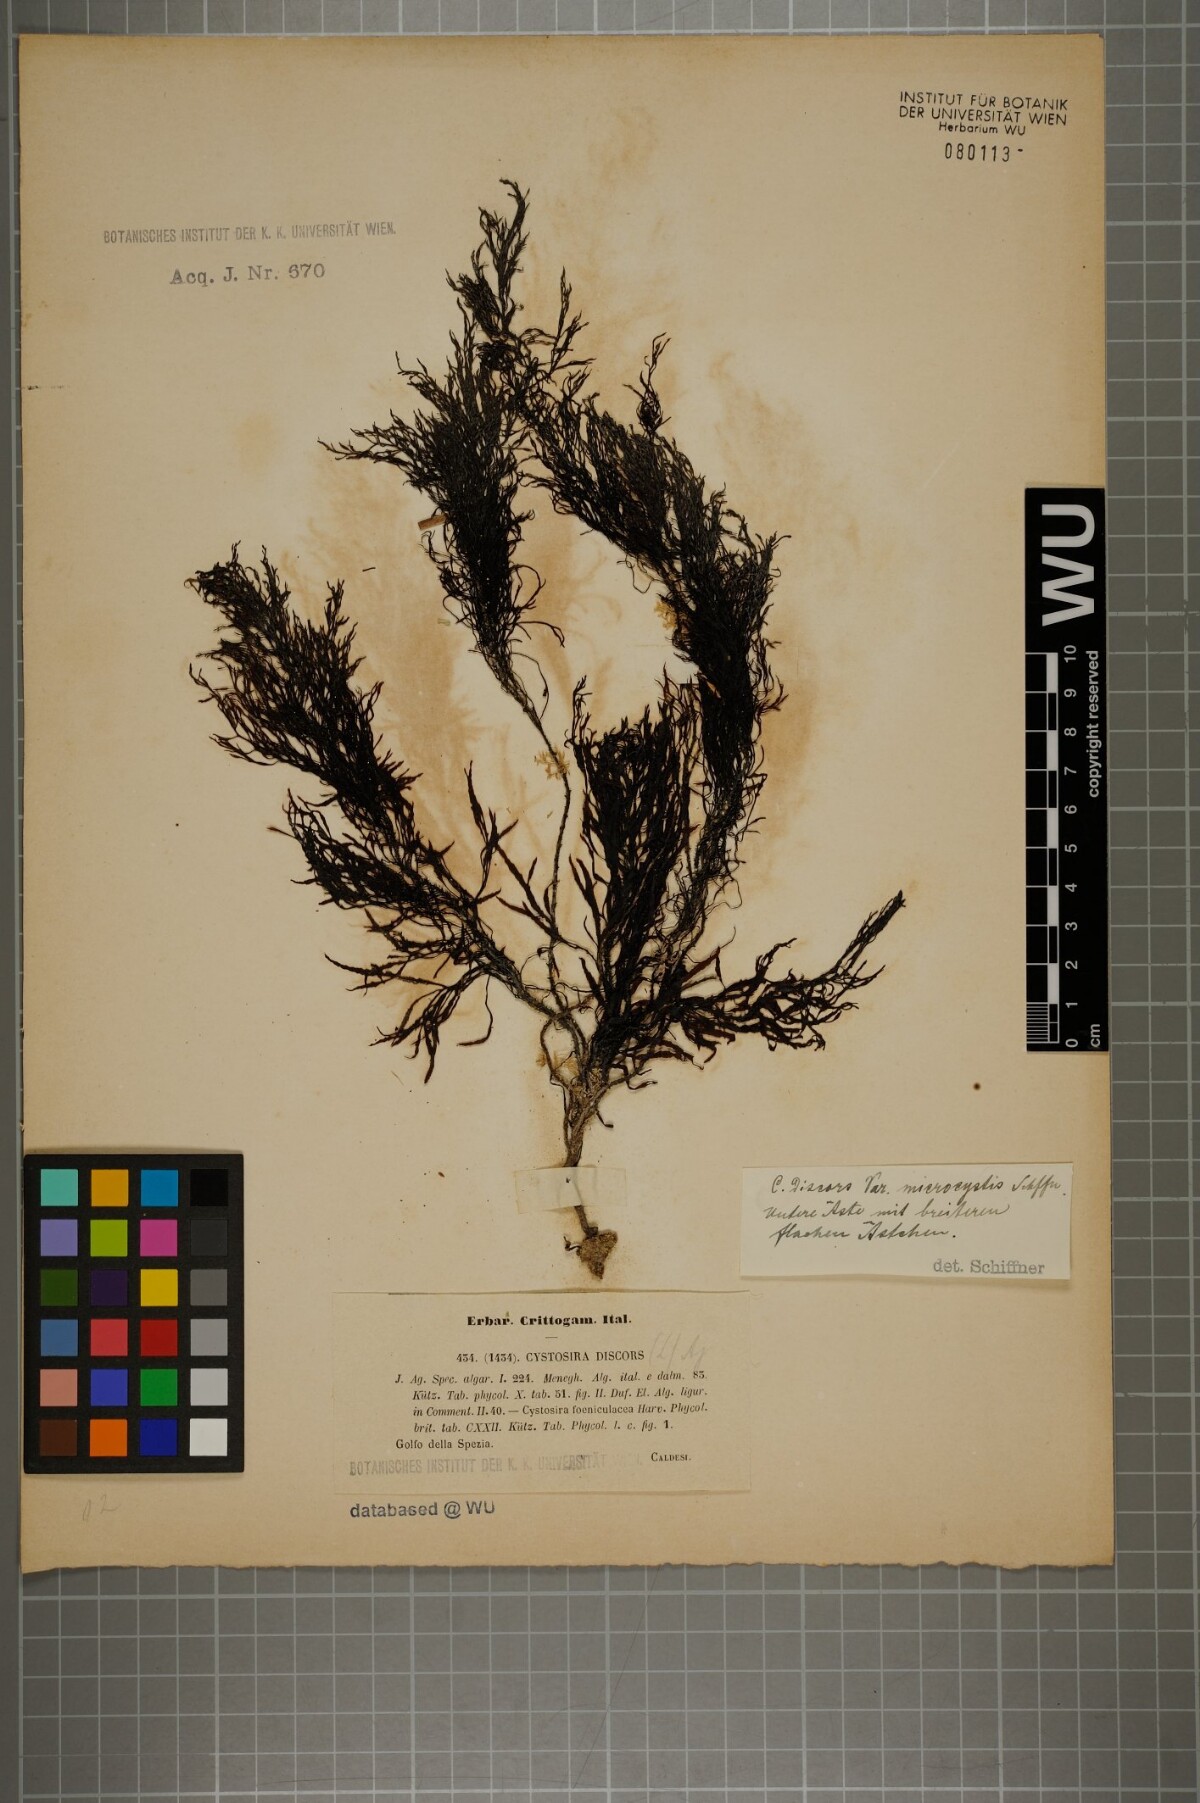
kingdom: Chromista
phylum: Ochrophyta
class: Phaeophyceae
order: Fucales
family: Sargassaceae
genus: Cystoseira
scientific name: Cystoseira foeniculacea
